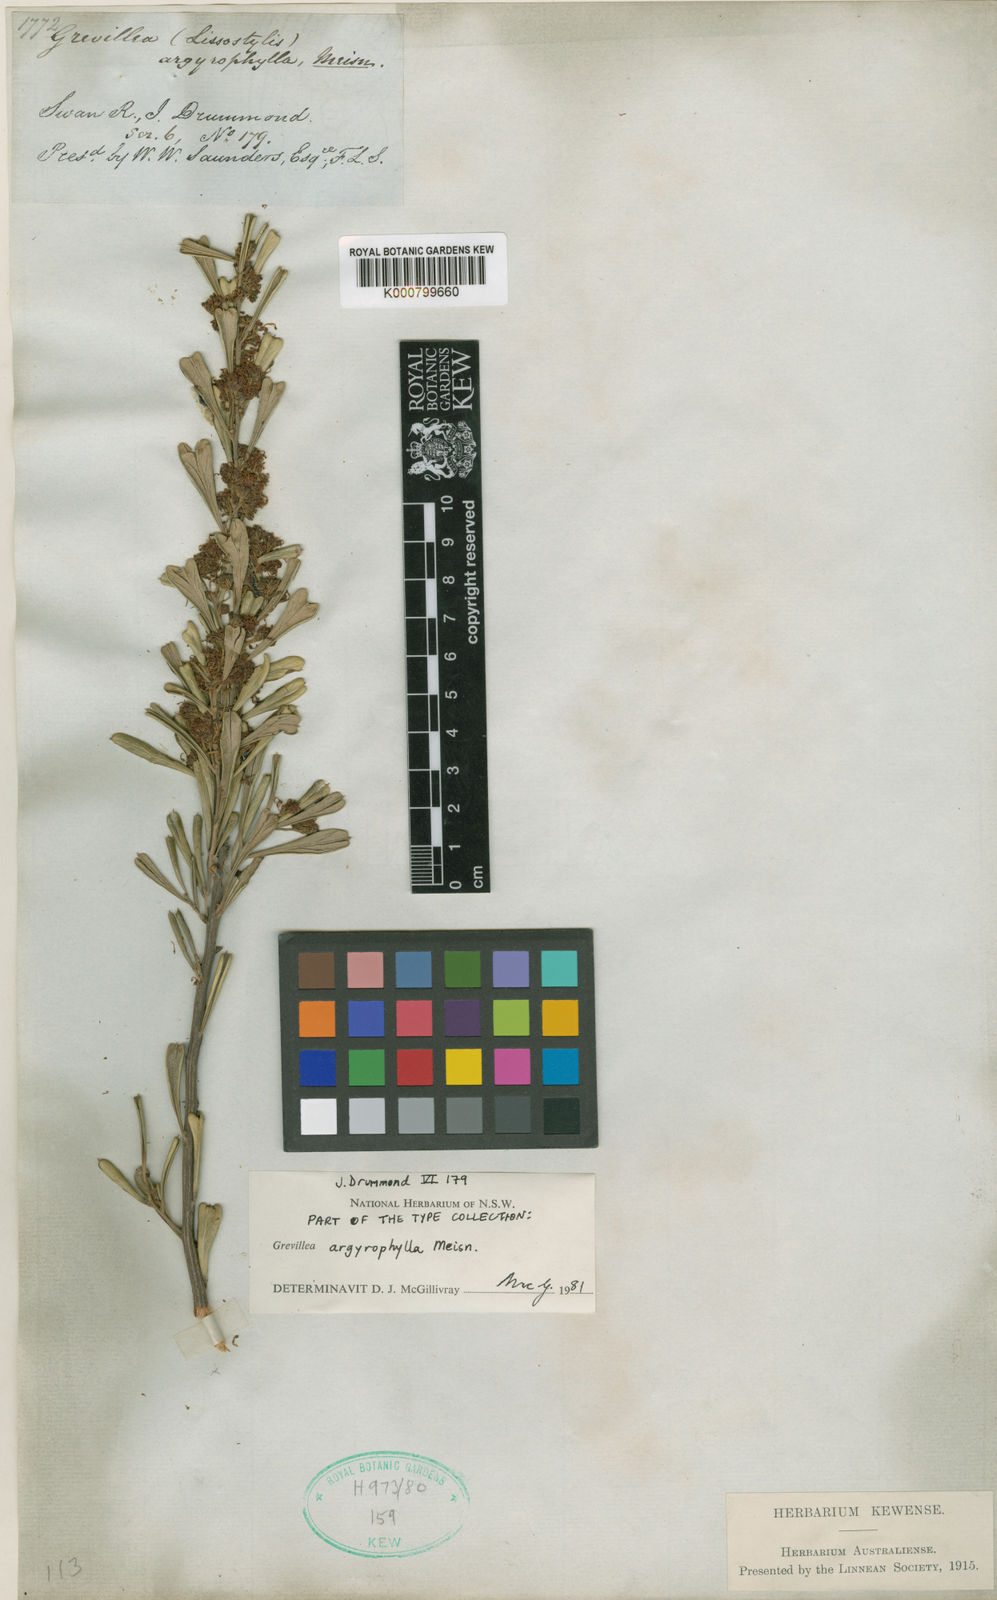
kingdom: Plantae
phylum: Tracheophyta
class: Magnoliopsida
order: Proteales
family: Proteaceae
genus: Grevillea
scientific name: Grevillea argyrophylla
